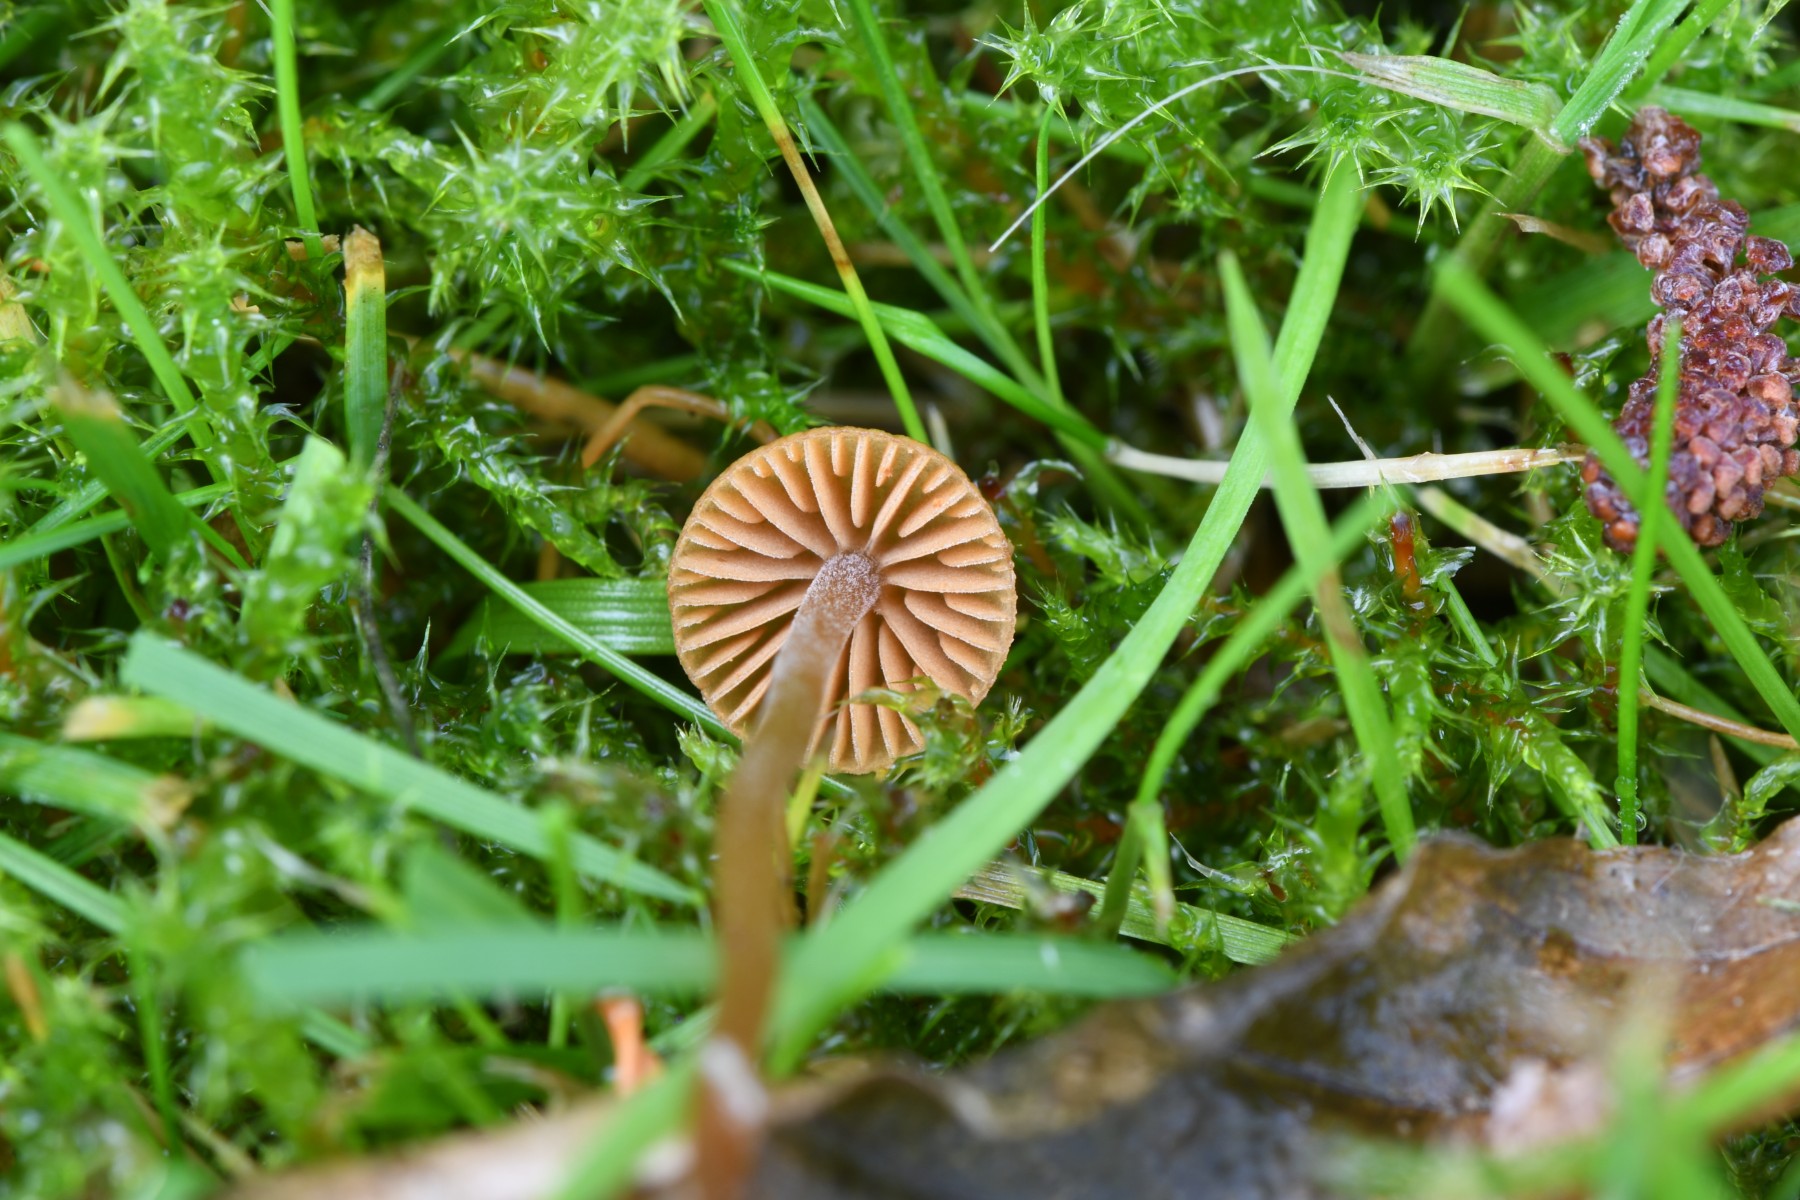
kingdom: Fungi
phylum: Basidiomycota
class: Agaricomycetes
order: Agaricales
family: Hymenogastraceae
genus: Galerina
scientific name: Galerina
